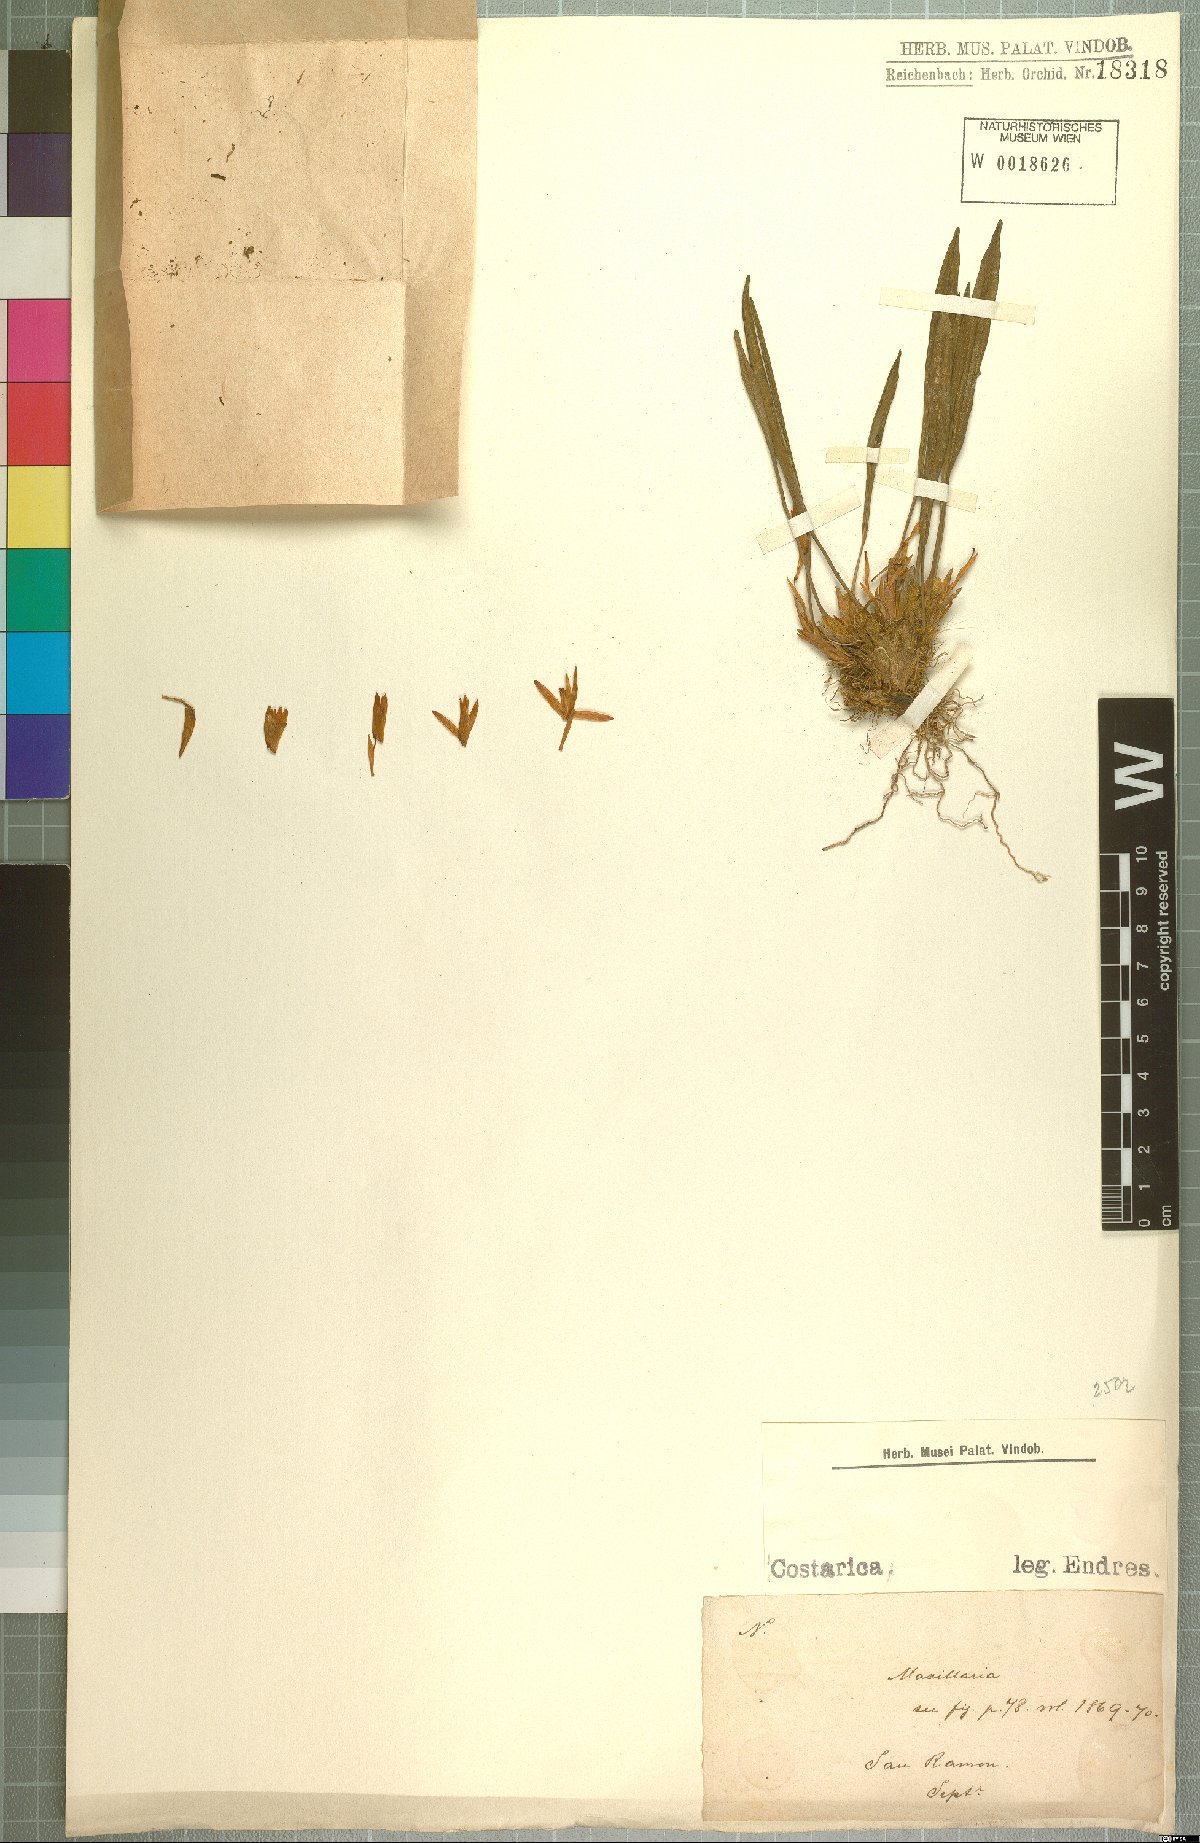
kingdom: Plantae
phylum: Tracheophyta
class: Liliopsida
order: Asparagales
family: Orchidaceae
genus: Maxillaria
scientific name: Maxillaria
